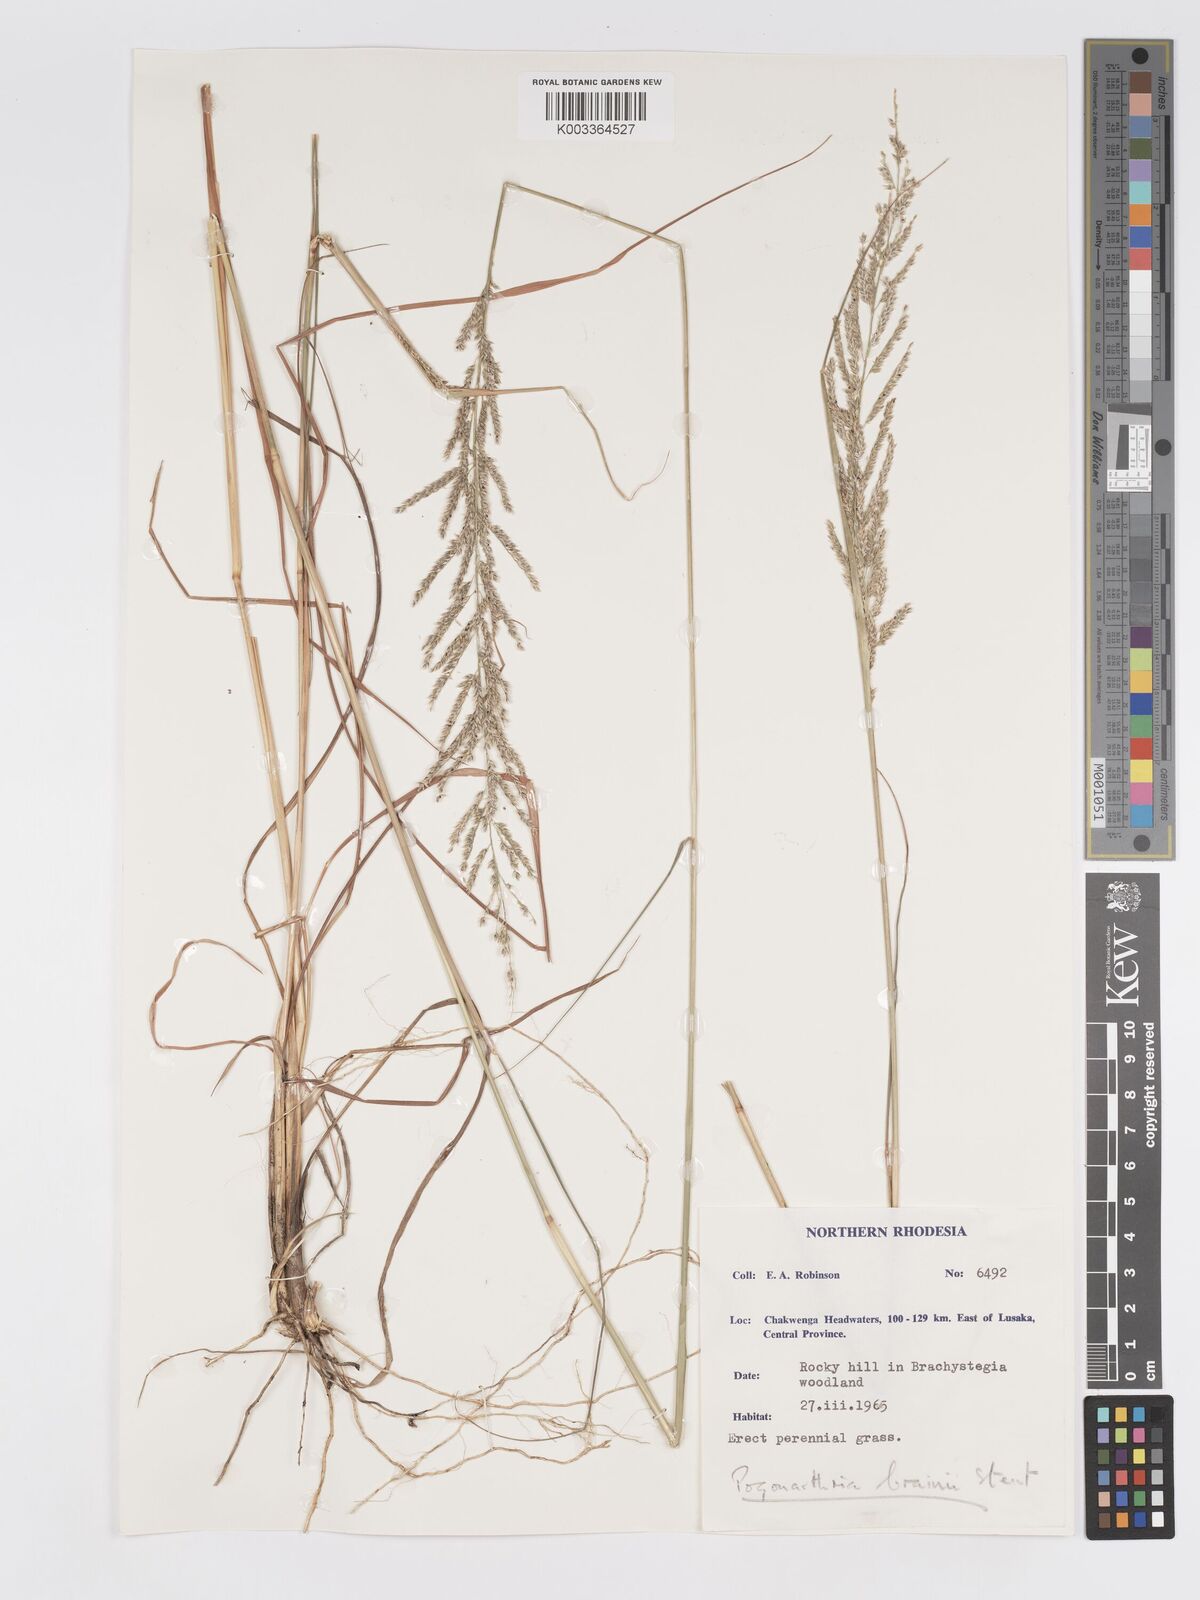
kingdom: Plantae
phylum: Tracheophyta
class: Liliopsida
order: Poales
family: Poaceae
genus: Eragrostis
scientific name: Eragrostis brainii
